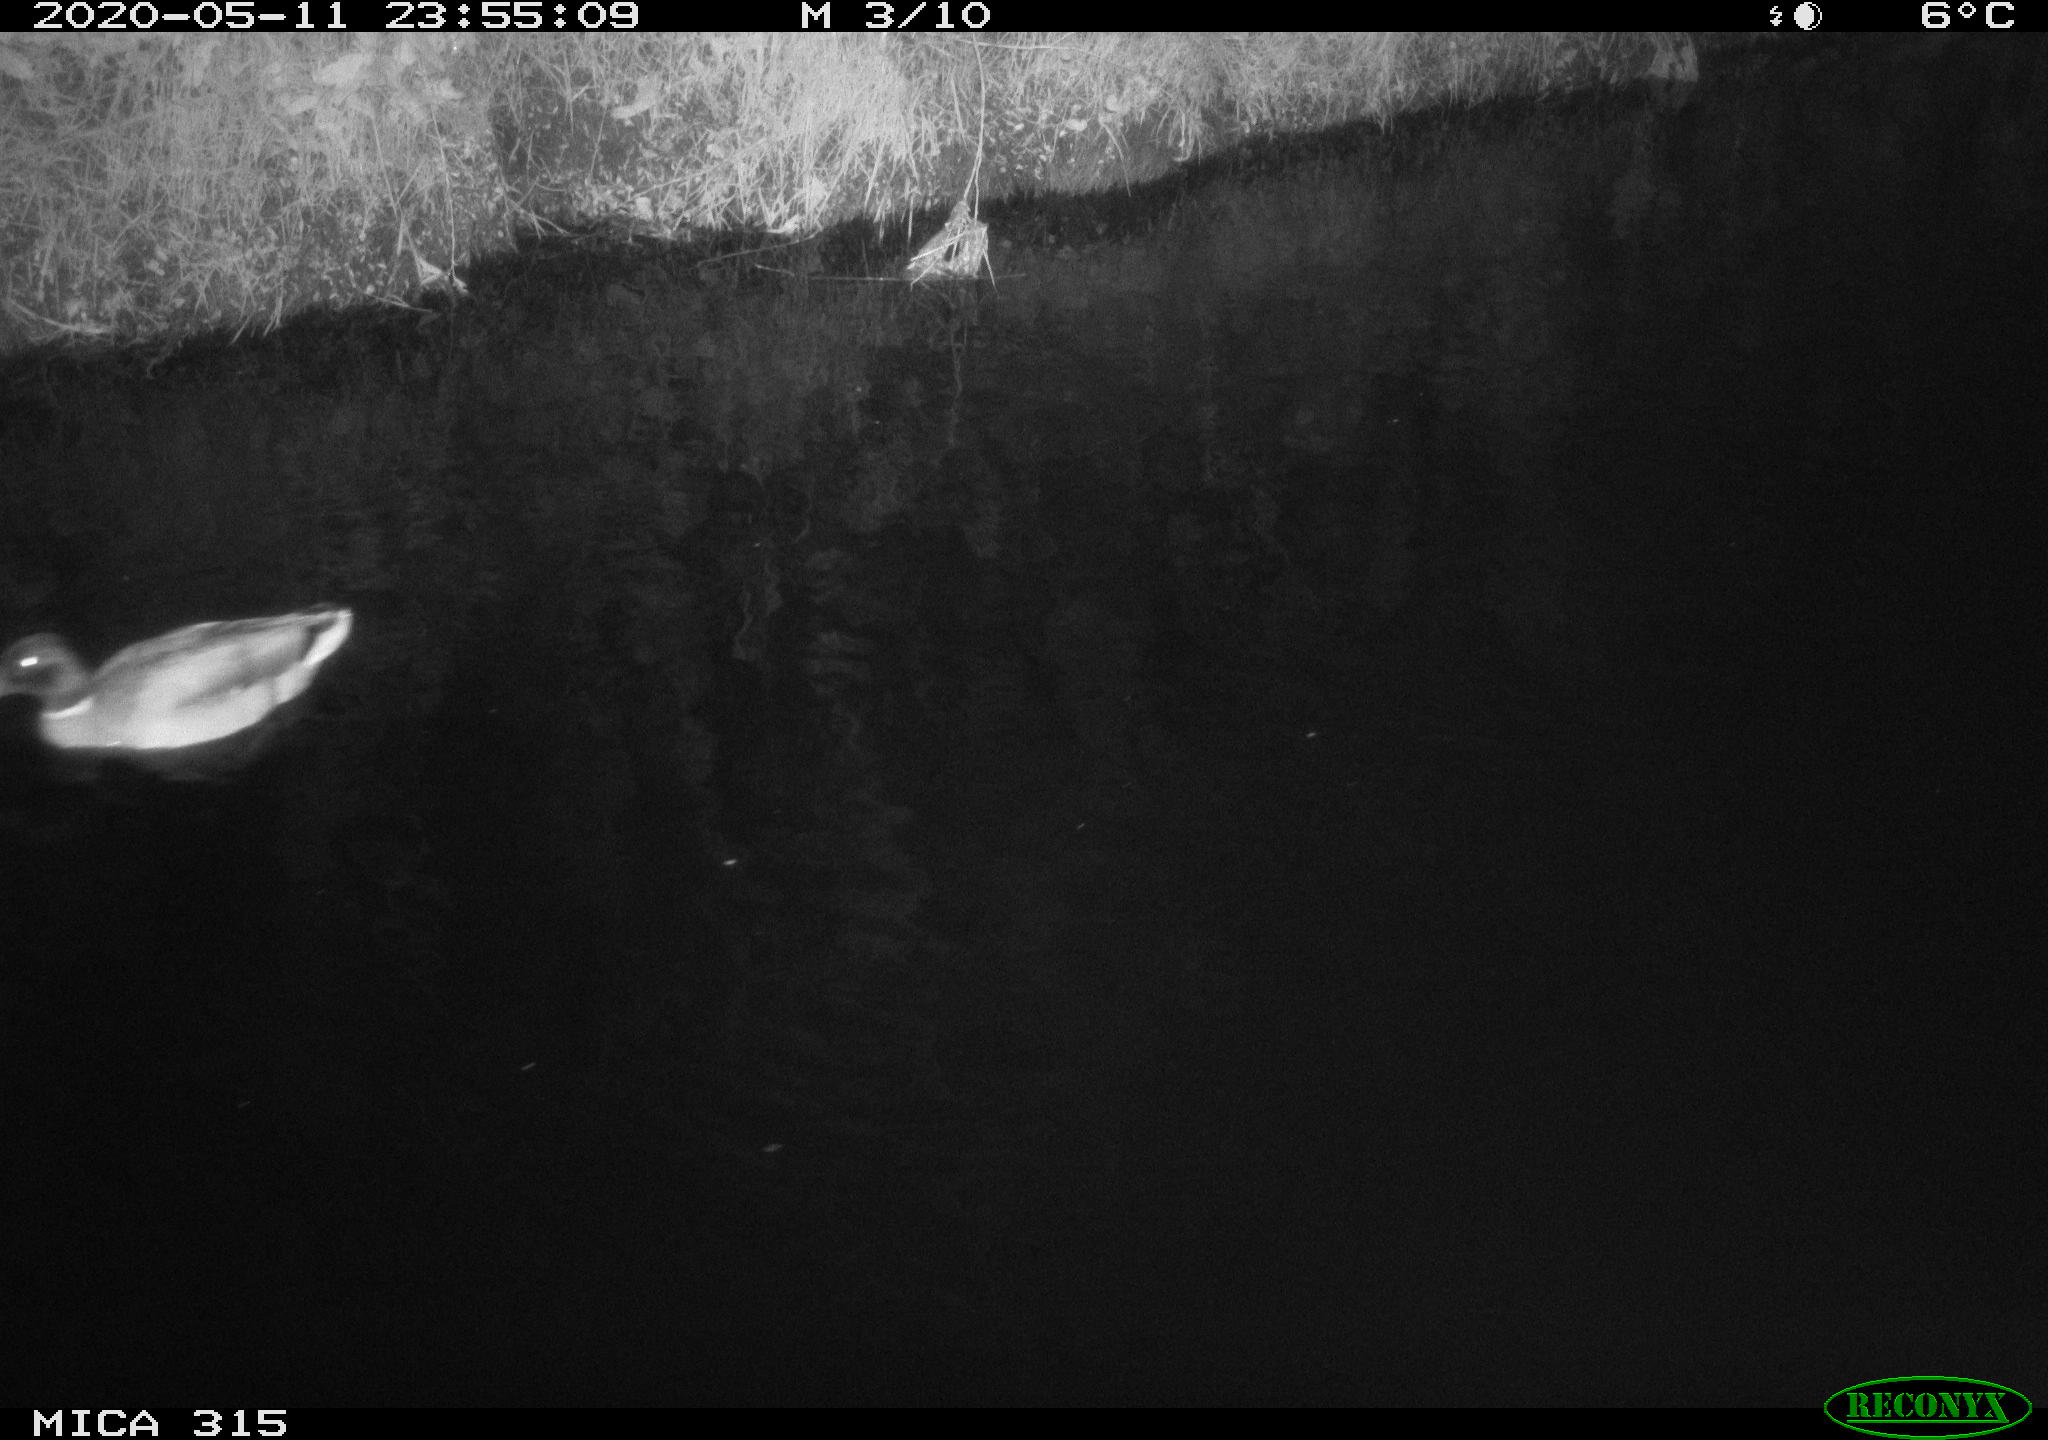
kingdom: Animalia
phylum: Chordata
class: Aves
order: Anseriformes
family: Anatidae
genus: Anas
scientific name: Anas platyrhynchos
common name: Mallard
